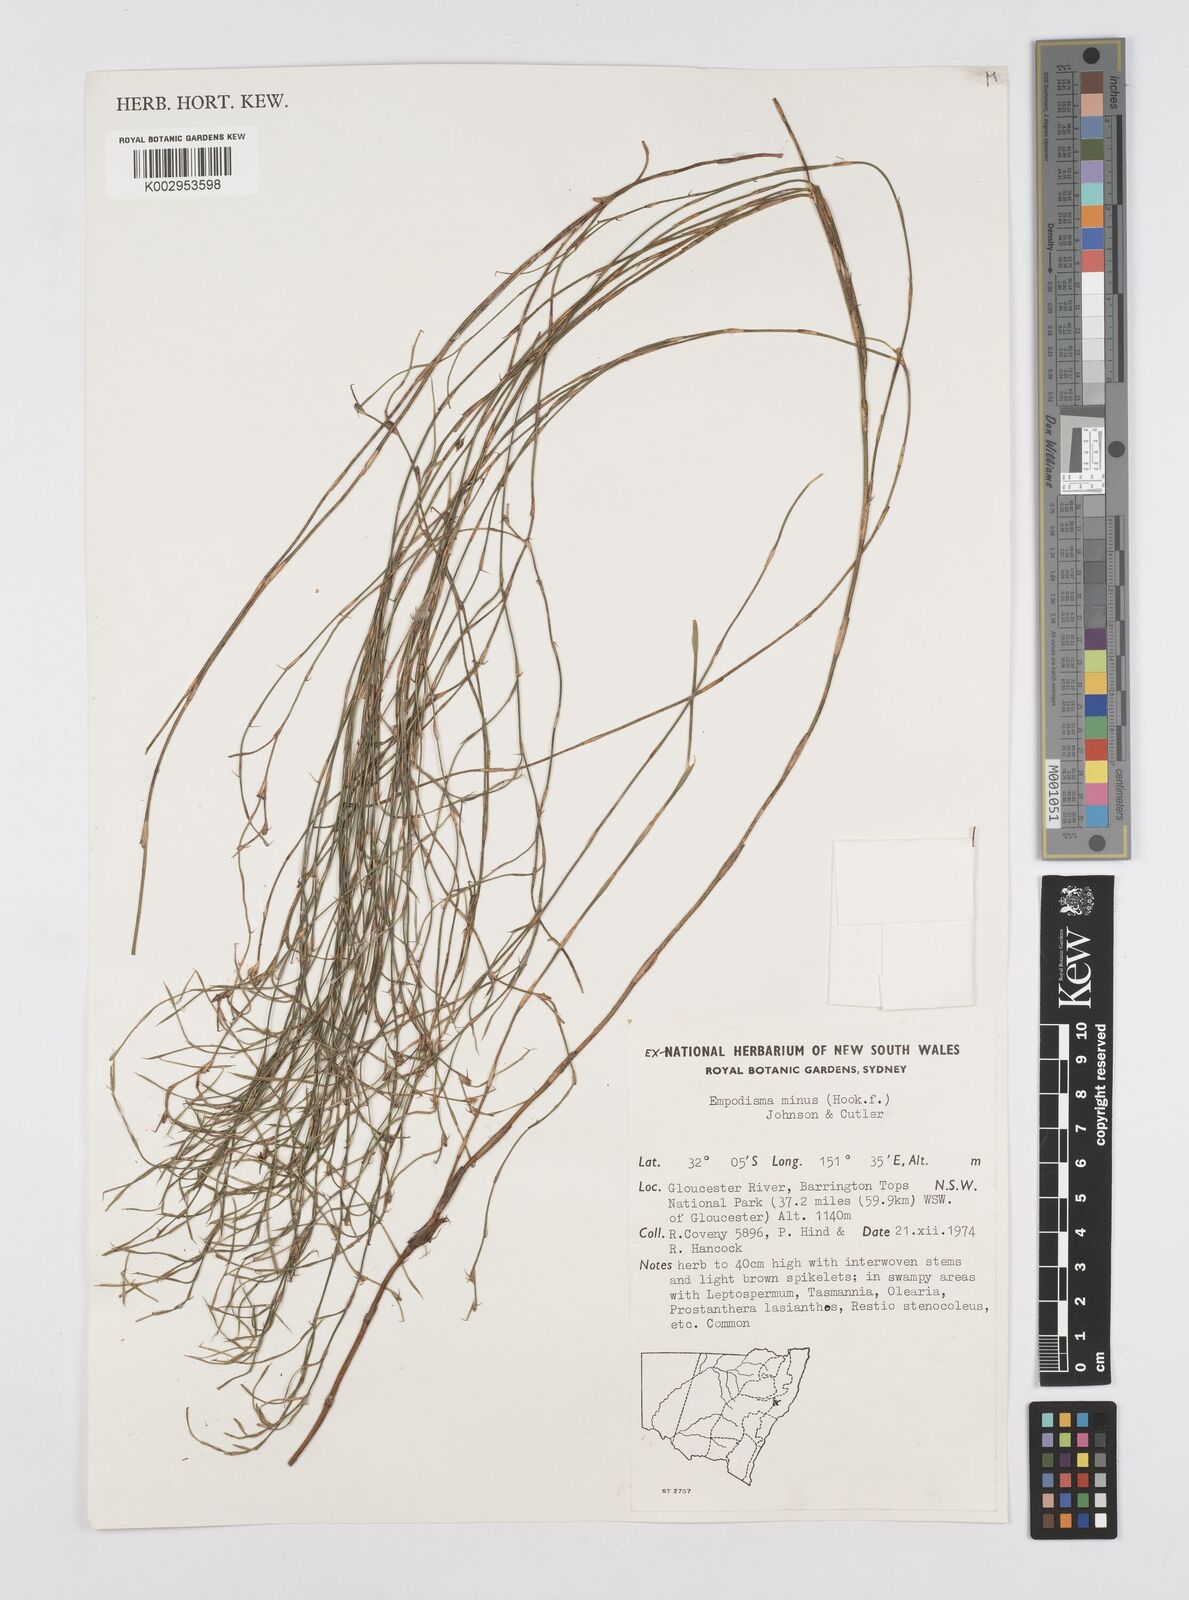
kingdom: Plantae
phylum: Tracheophyta
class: Liliopsida
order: Poales
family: Restionaceae
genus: Empodisma
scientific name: Empodisma minus
